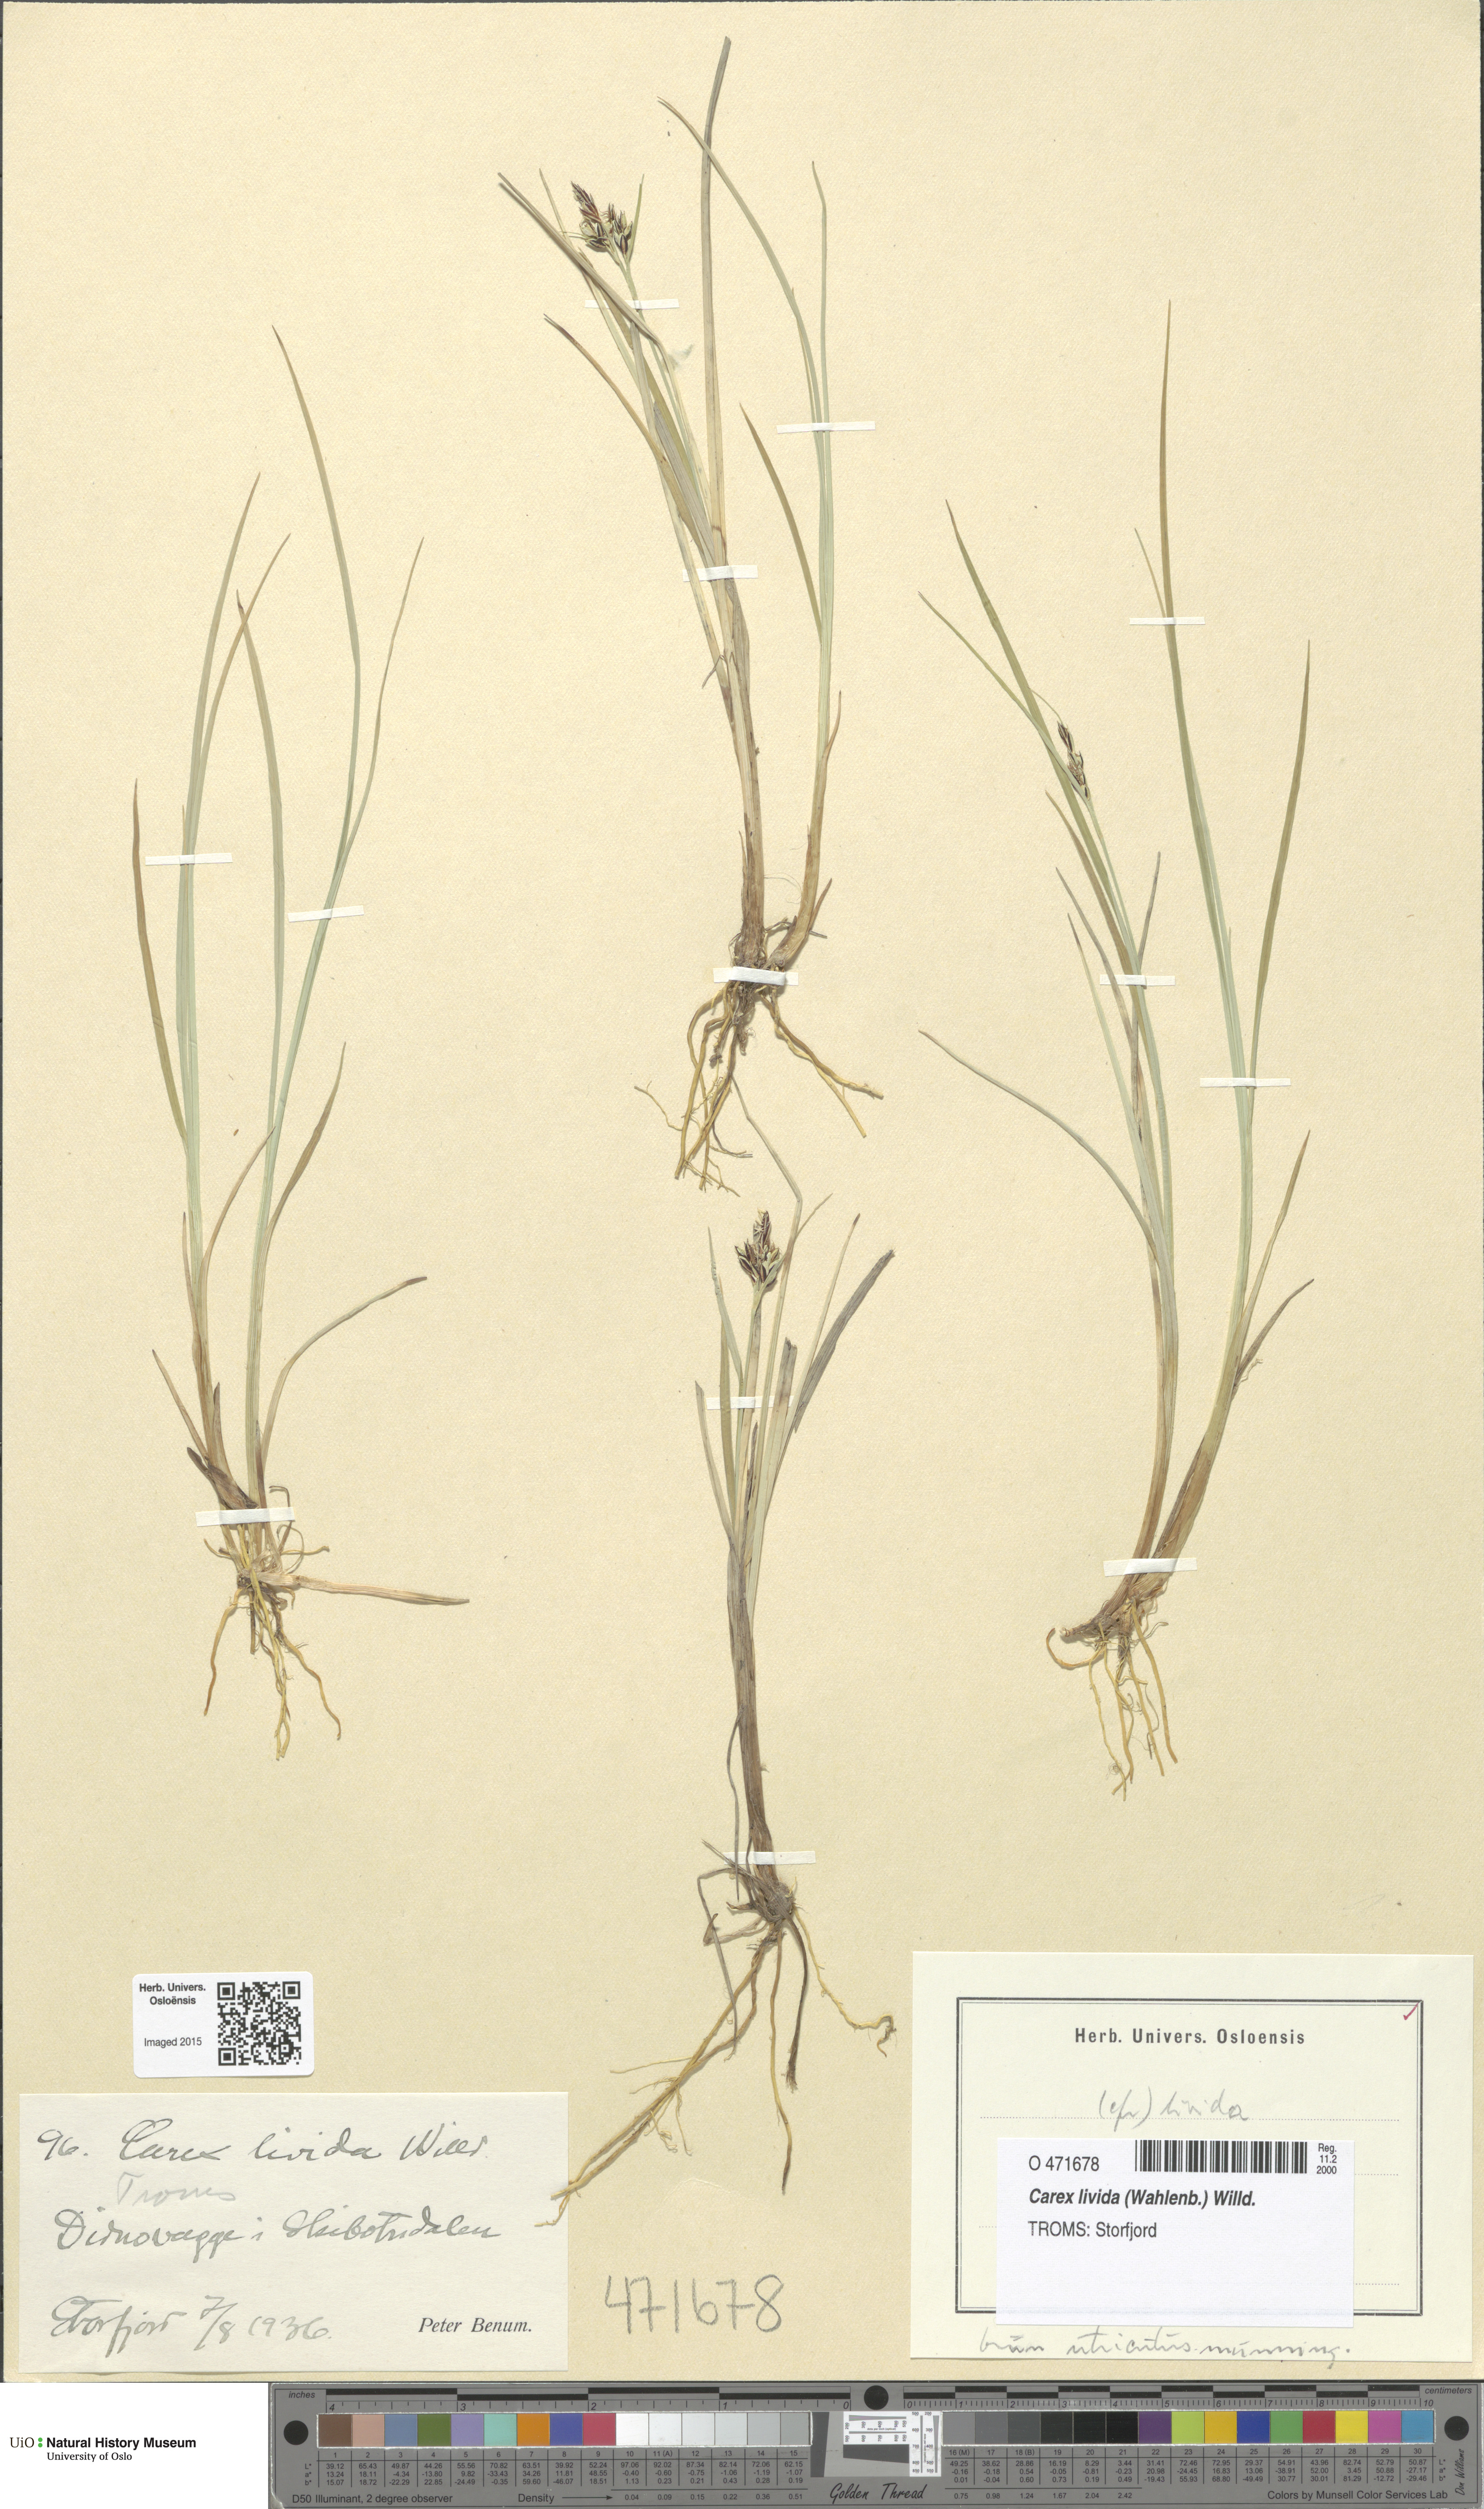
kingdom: Plantae
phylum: Tracheophyta
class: Liliopsida
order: Poales
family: Cyperaceae
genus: Carex
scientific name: Carex livida
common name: Livid sedge
